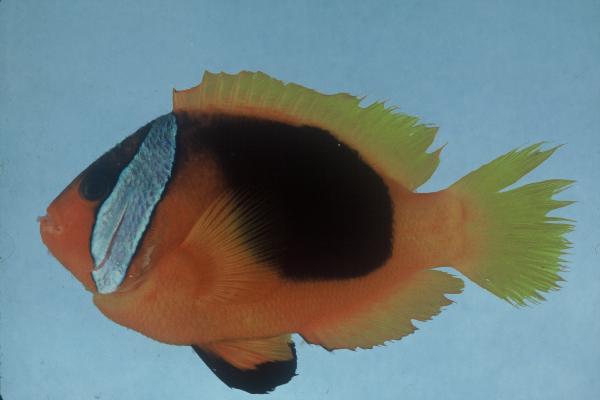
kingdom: Animalia
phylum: Chordata
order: Perciformes
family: Pomacentridae
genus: Amphiprion
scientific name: Amphiprion melanopus
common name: Black anemonefish
